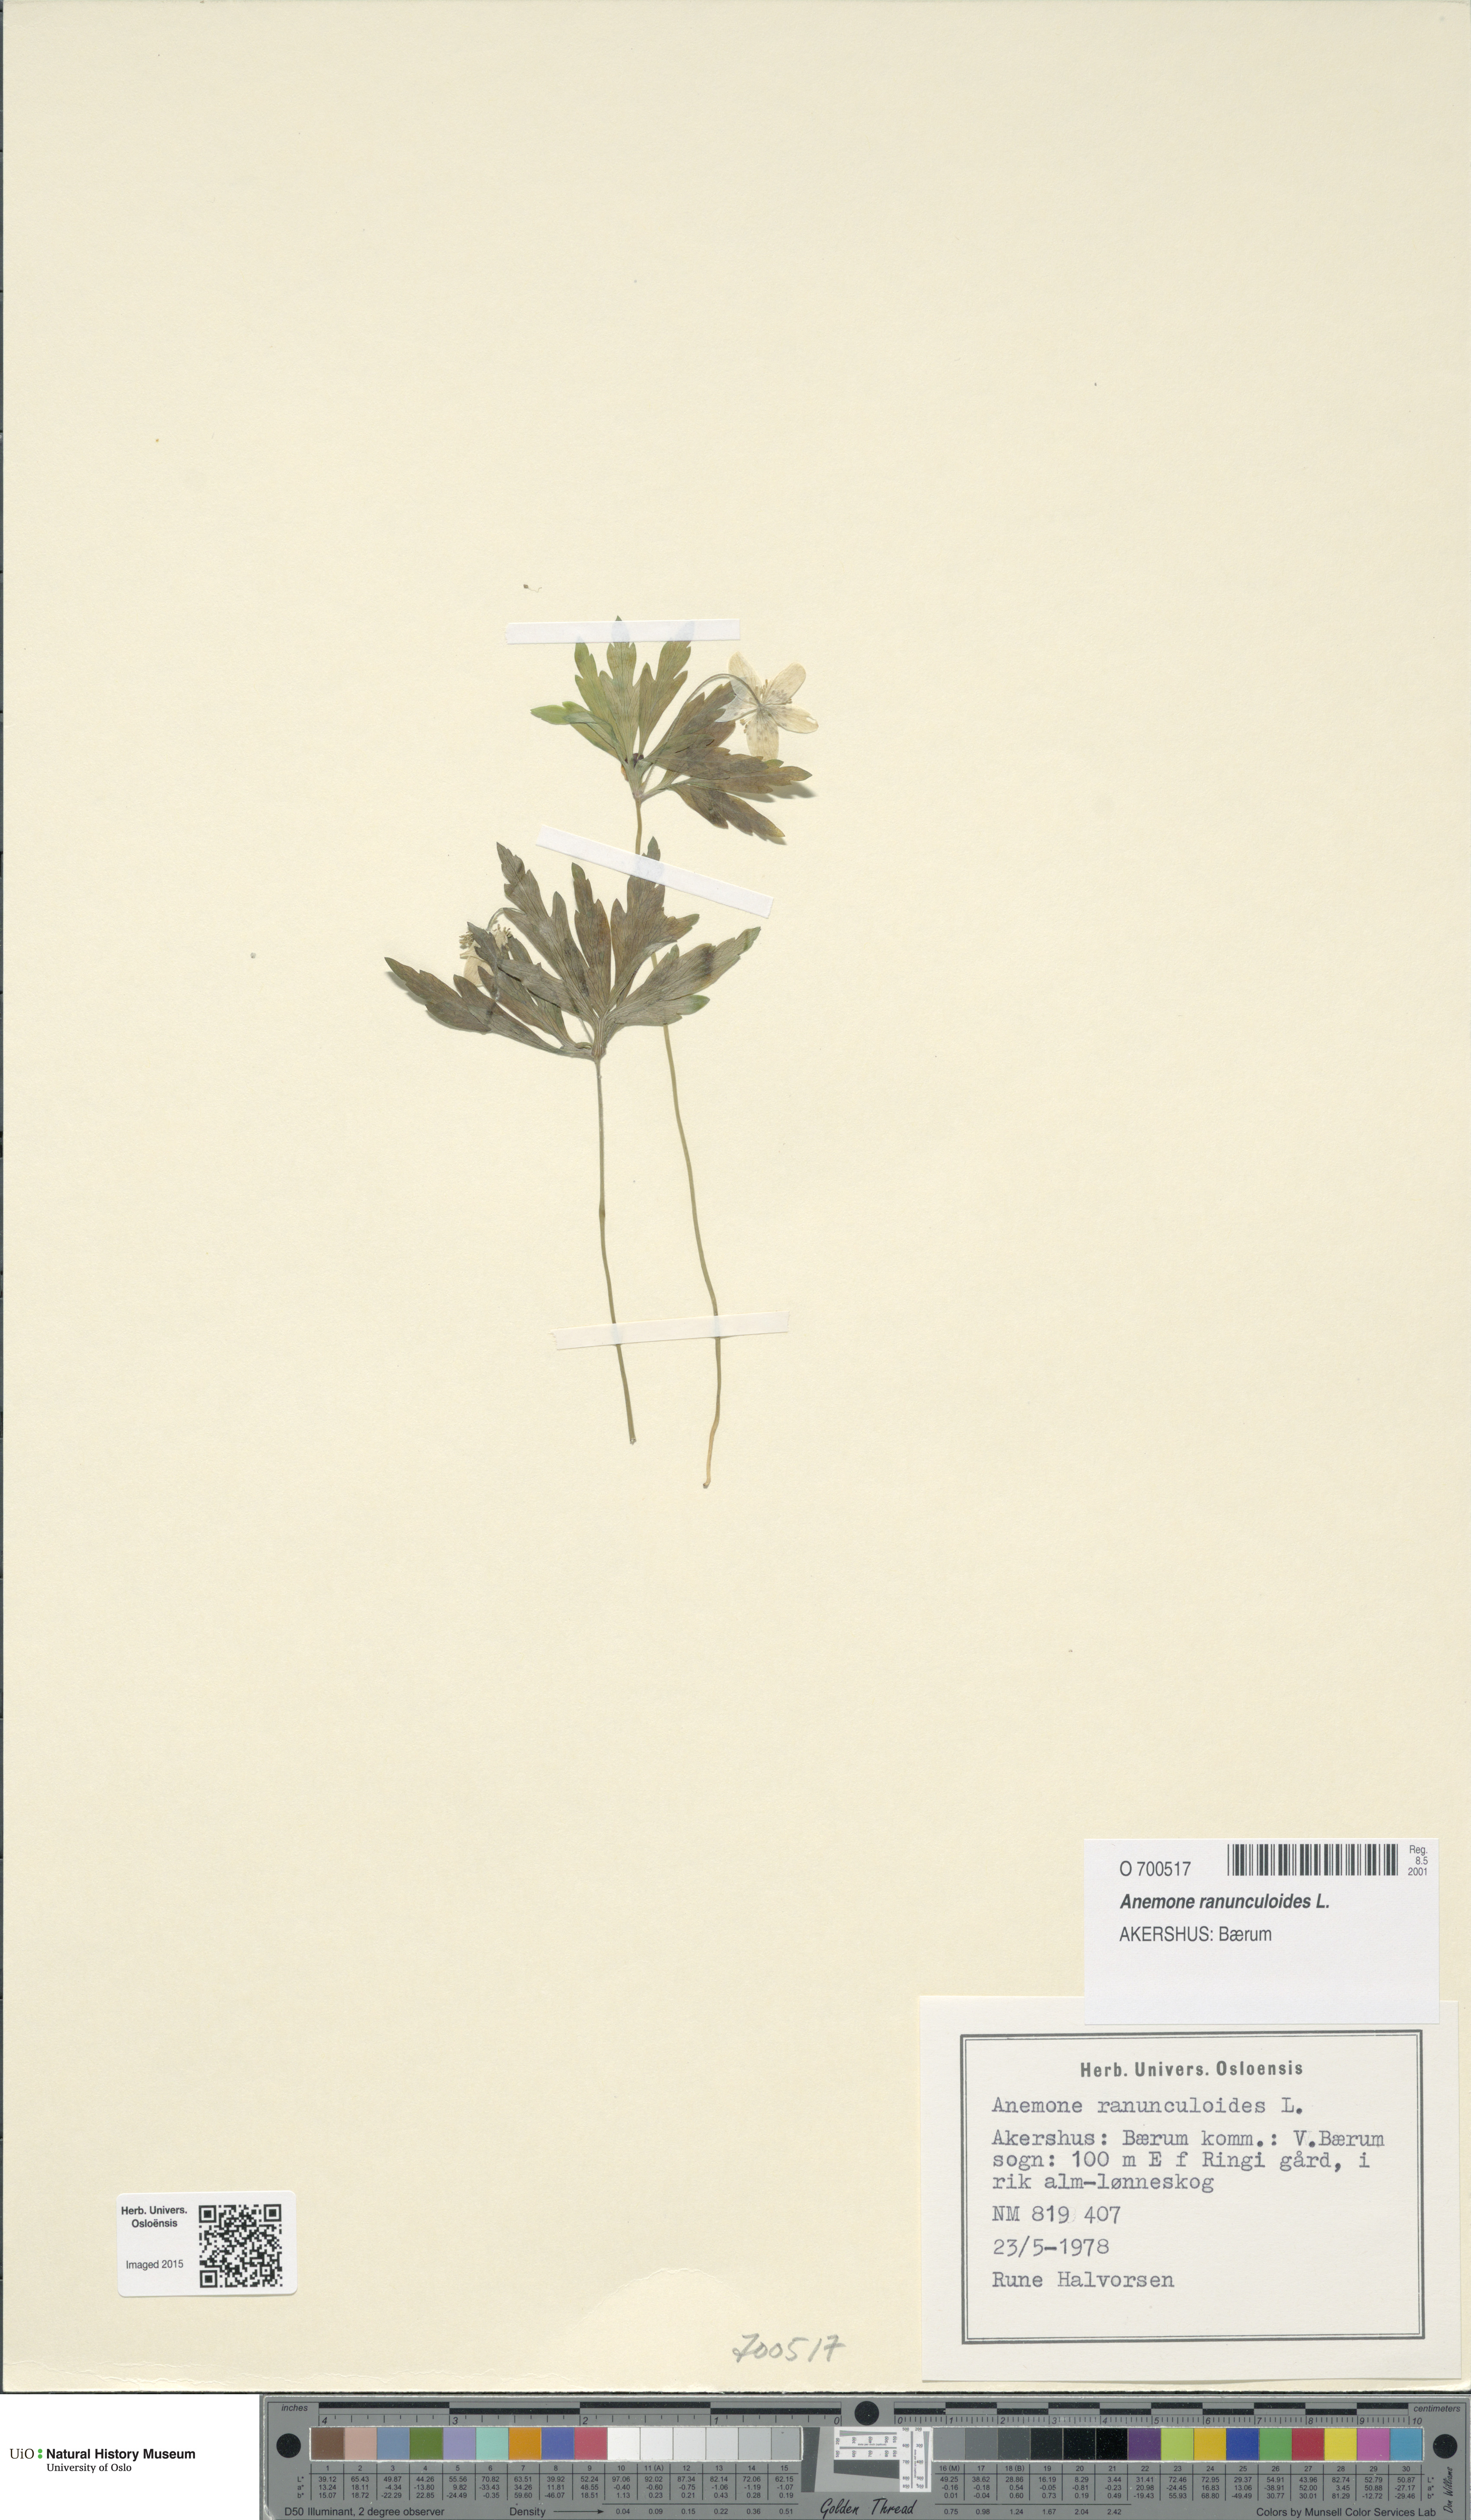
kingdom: Plantae
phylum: Tracheophyta
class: Magnoliopsida
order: Ranunculales
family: Ranunculaceae
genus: Anemone
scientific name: Anemone ranunculoides
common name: Yellow anemone
